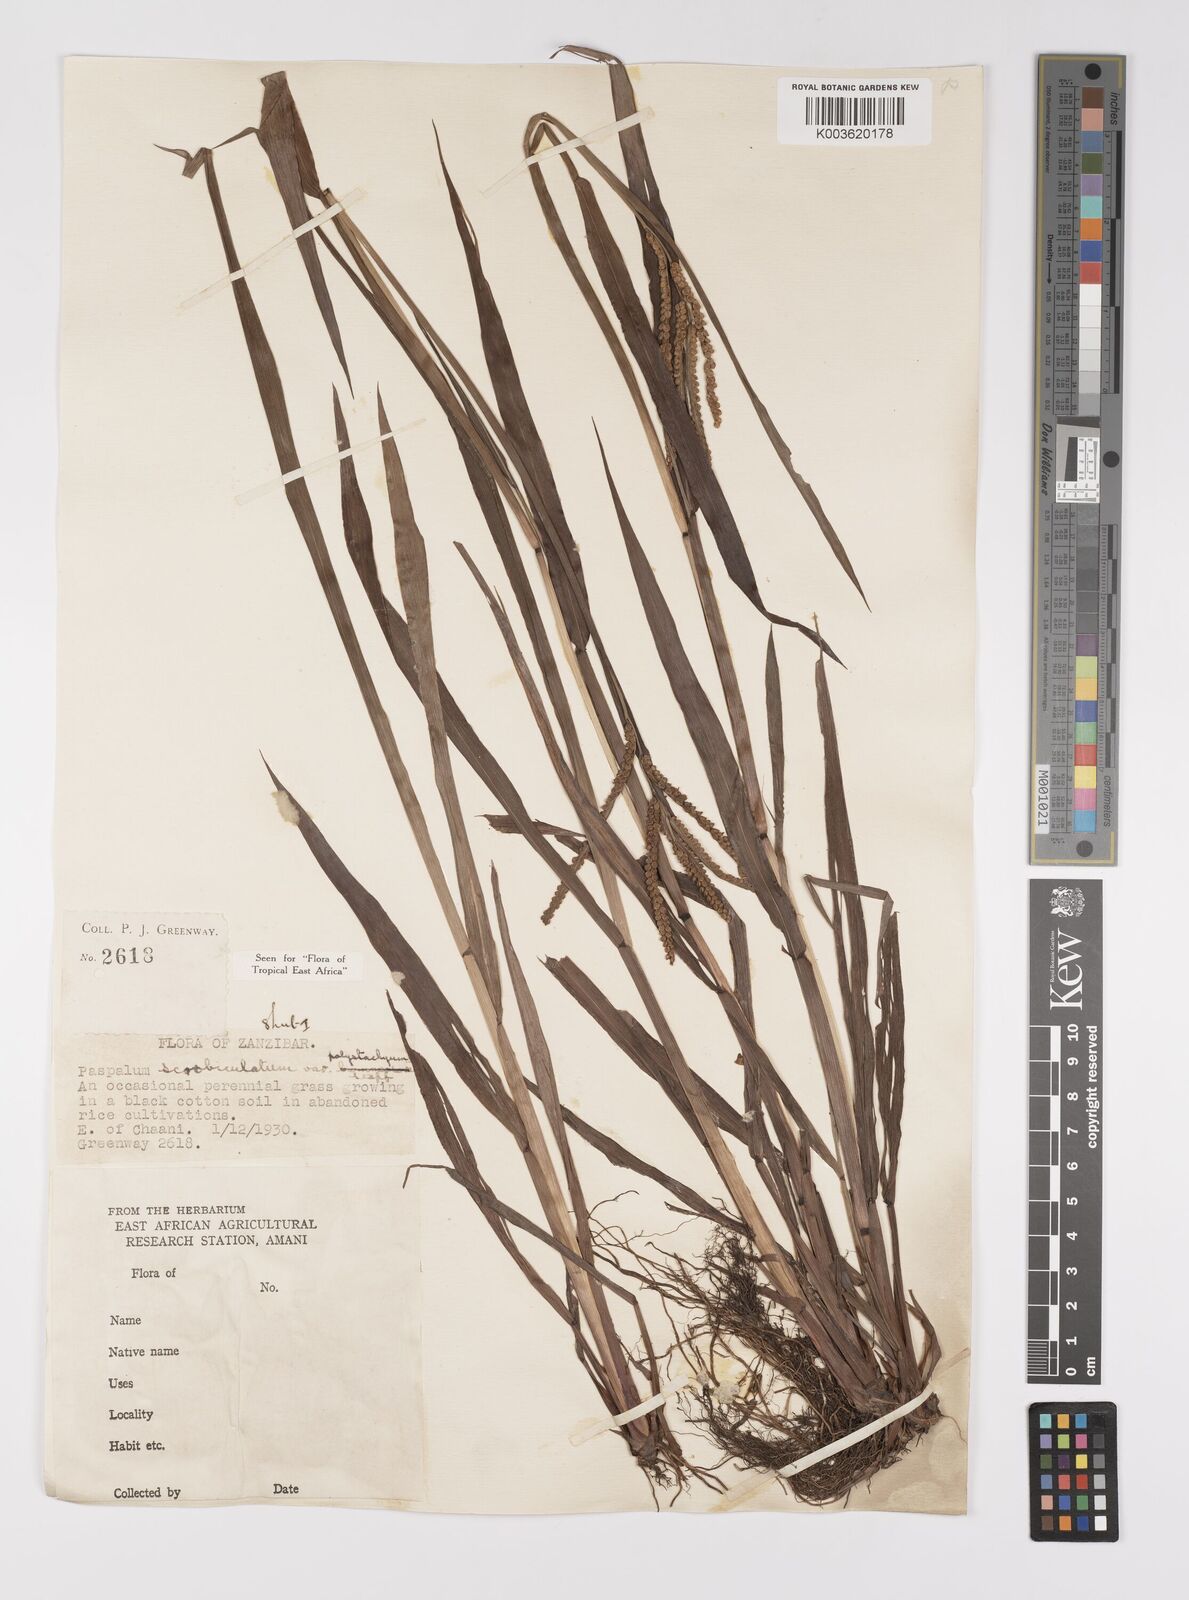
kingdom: Plantae
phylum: Tracheophyta
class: Liliopsida
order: Poales
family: Poaceae
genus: Paspalum
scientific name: Paspalum scrobiculatum
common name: Kodo millet
